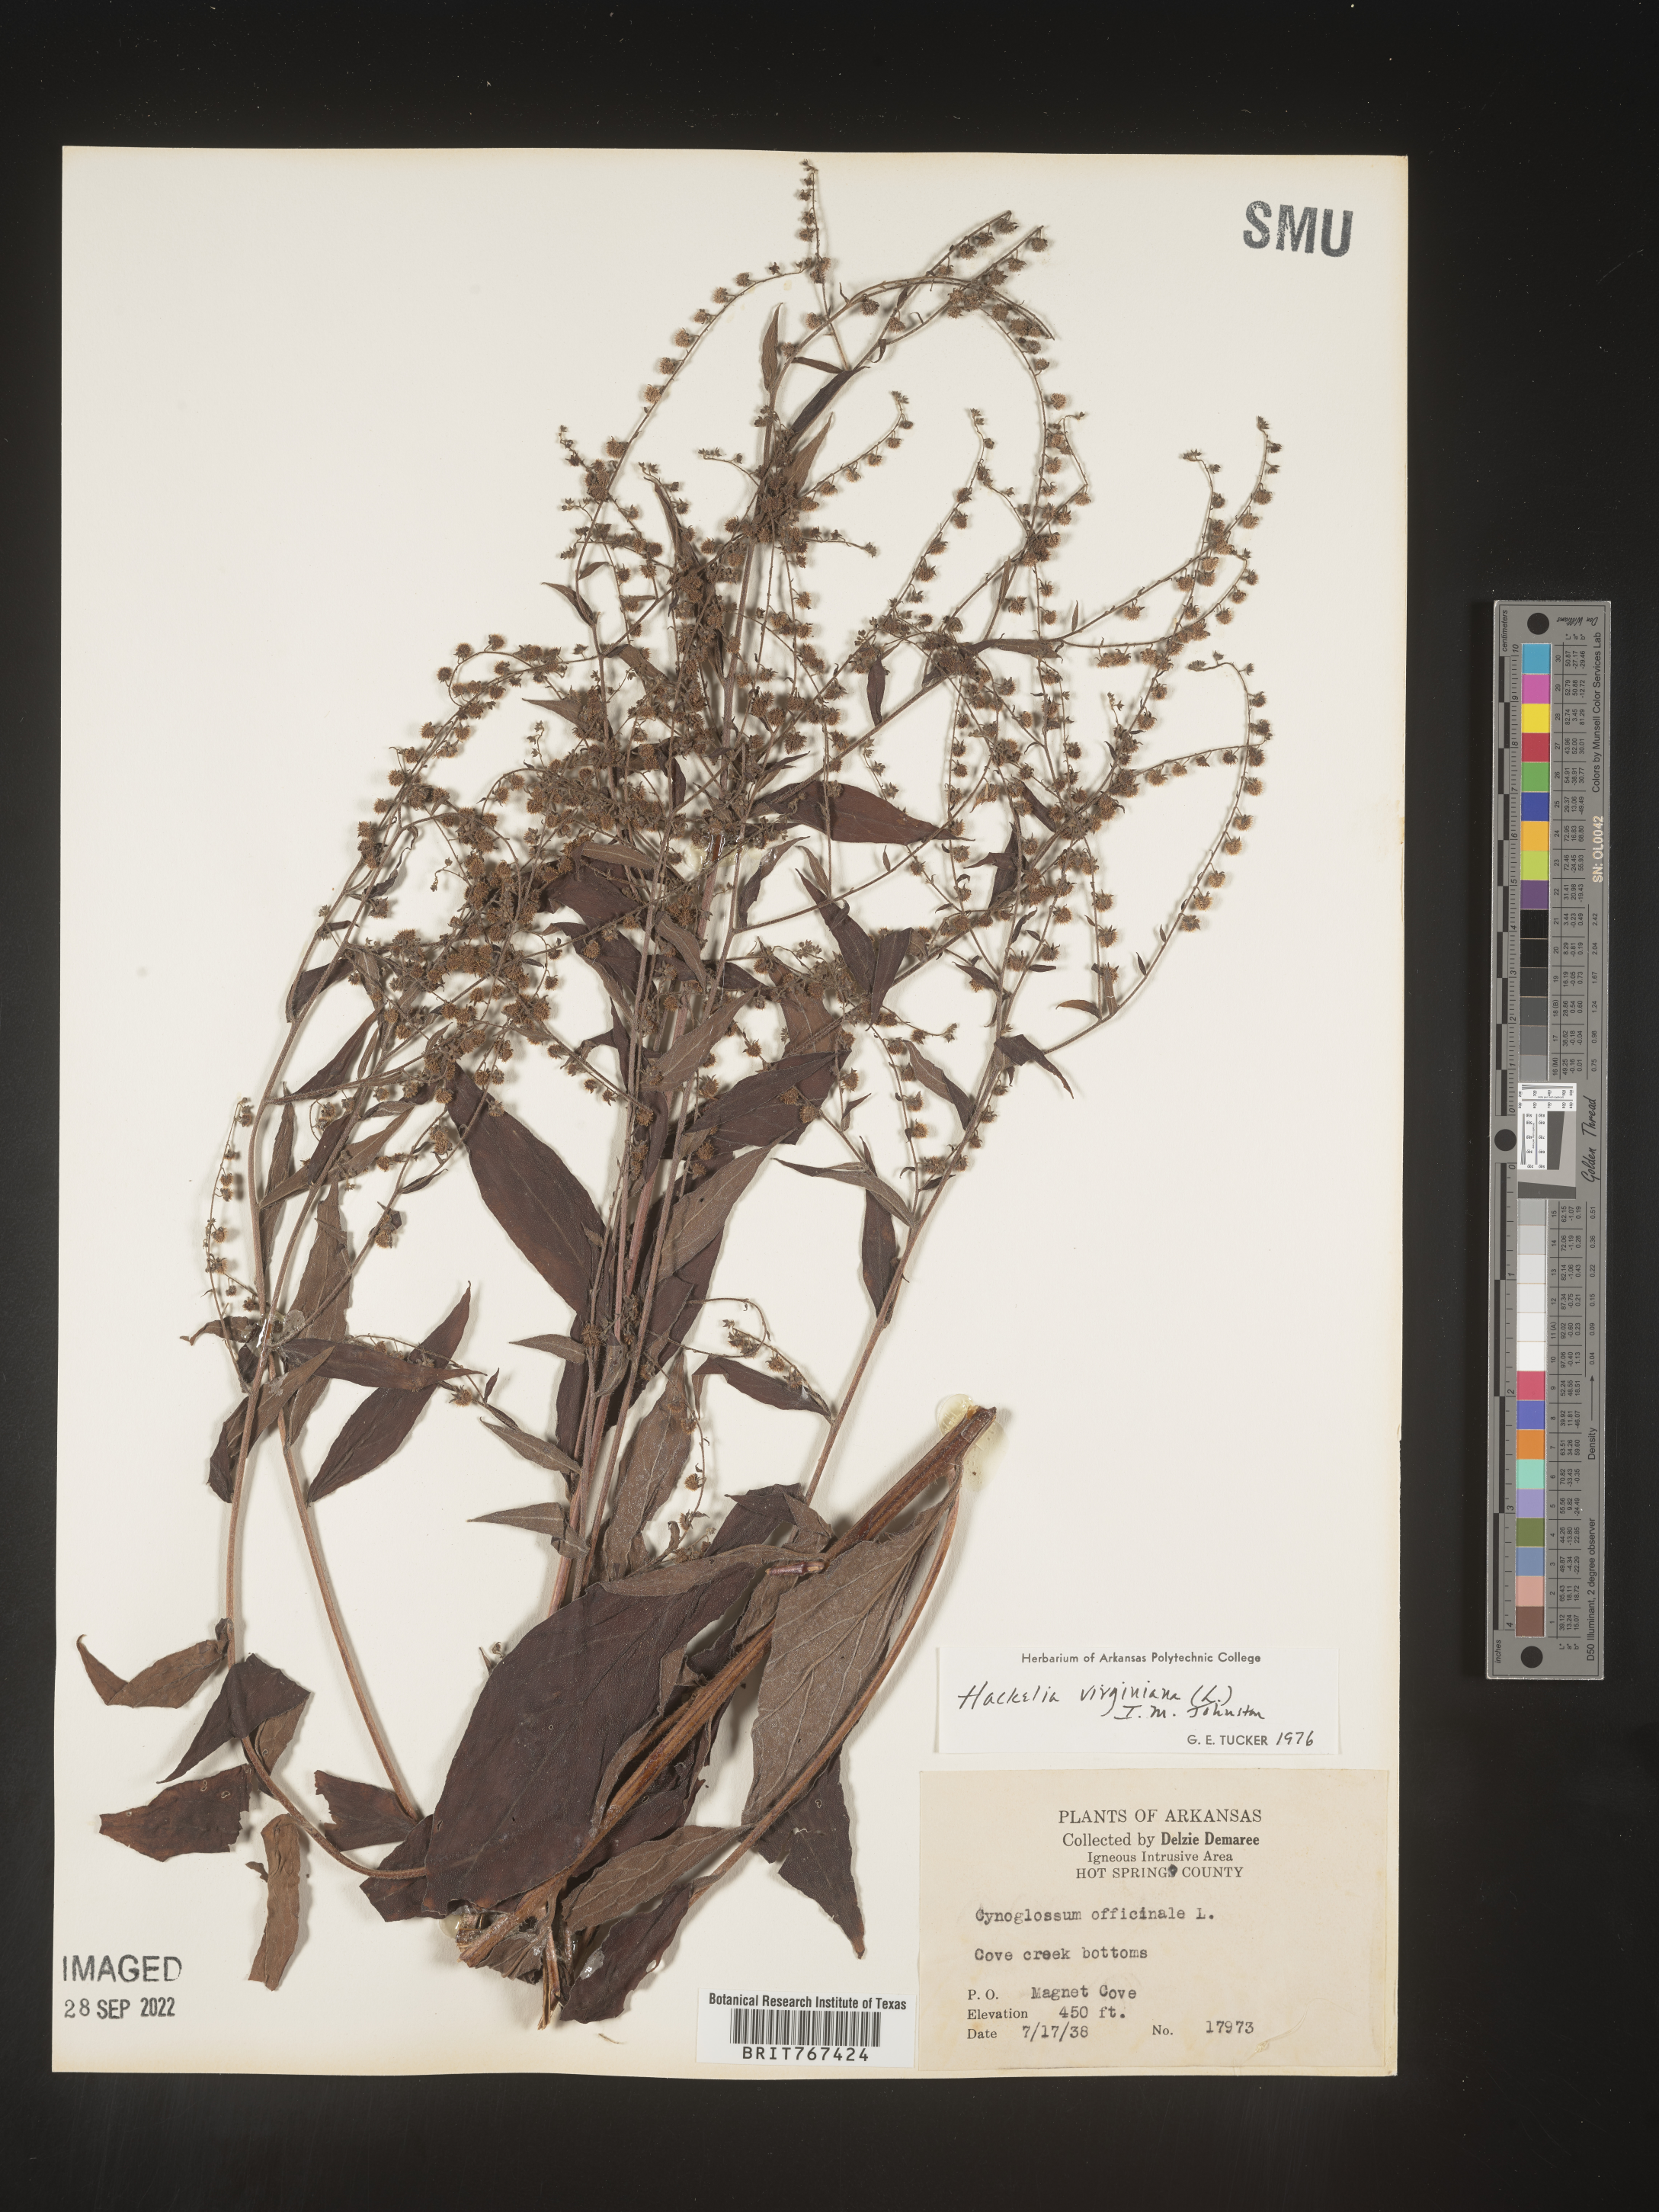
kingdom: Plantae
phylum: Tracheophyta
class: Magnoliopsida
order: Boraginales
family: Boraginaceae
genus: Hackelia
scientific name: Hackelia virginiana
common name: Beggar's-lice
